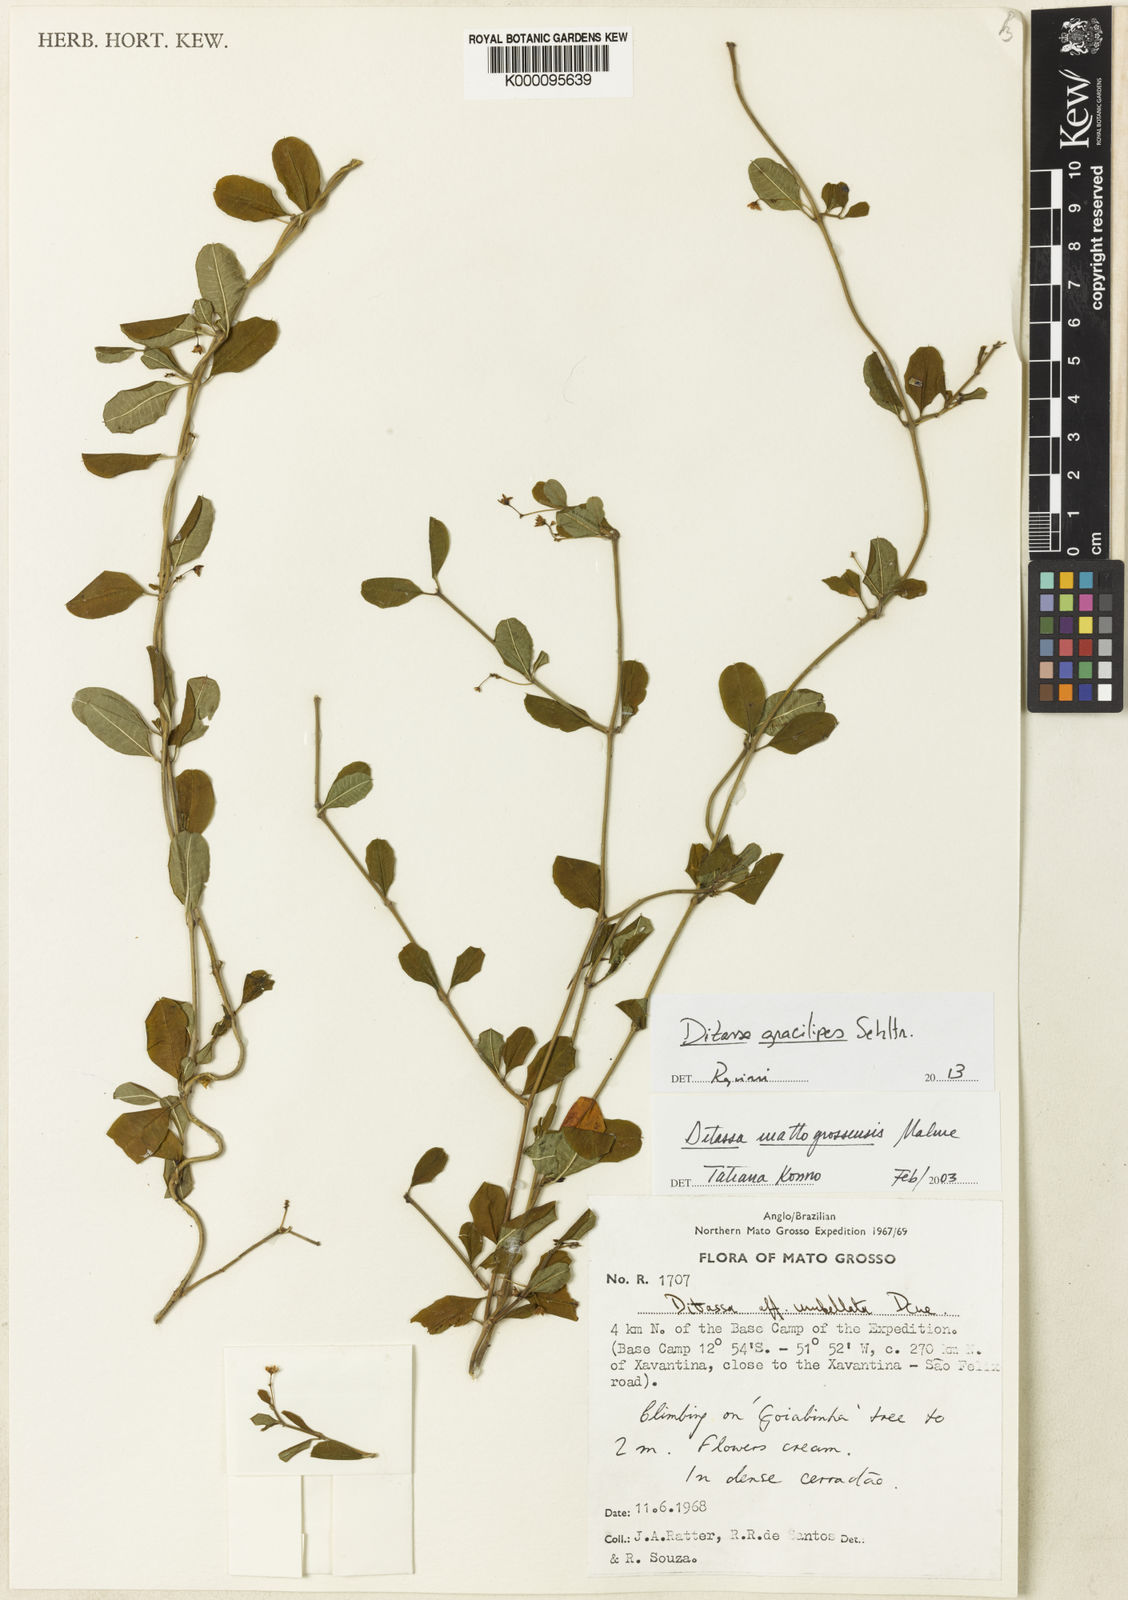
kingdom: Plantae
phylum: Tracheophyta
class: Magnoliopsida
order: Gentianales
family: Apocynaceae
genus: Ditassa
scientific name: Ditassa gracilipes
